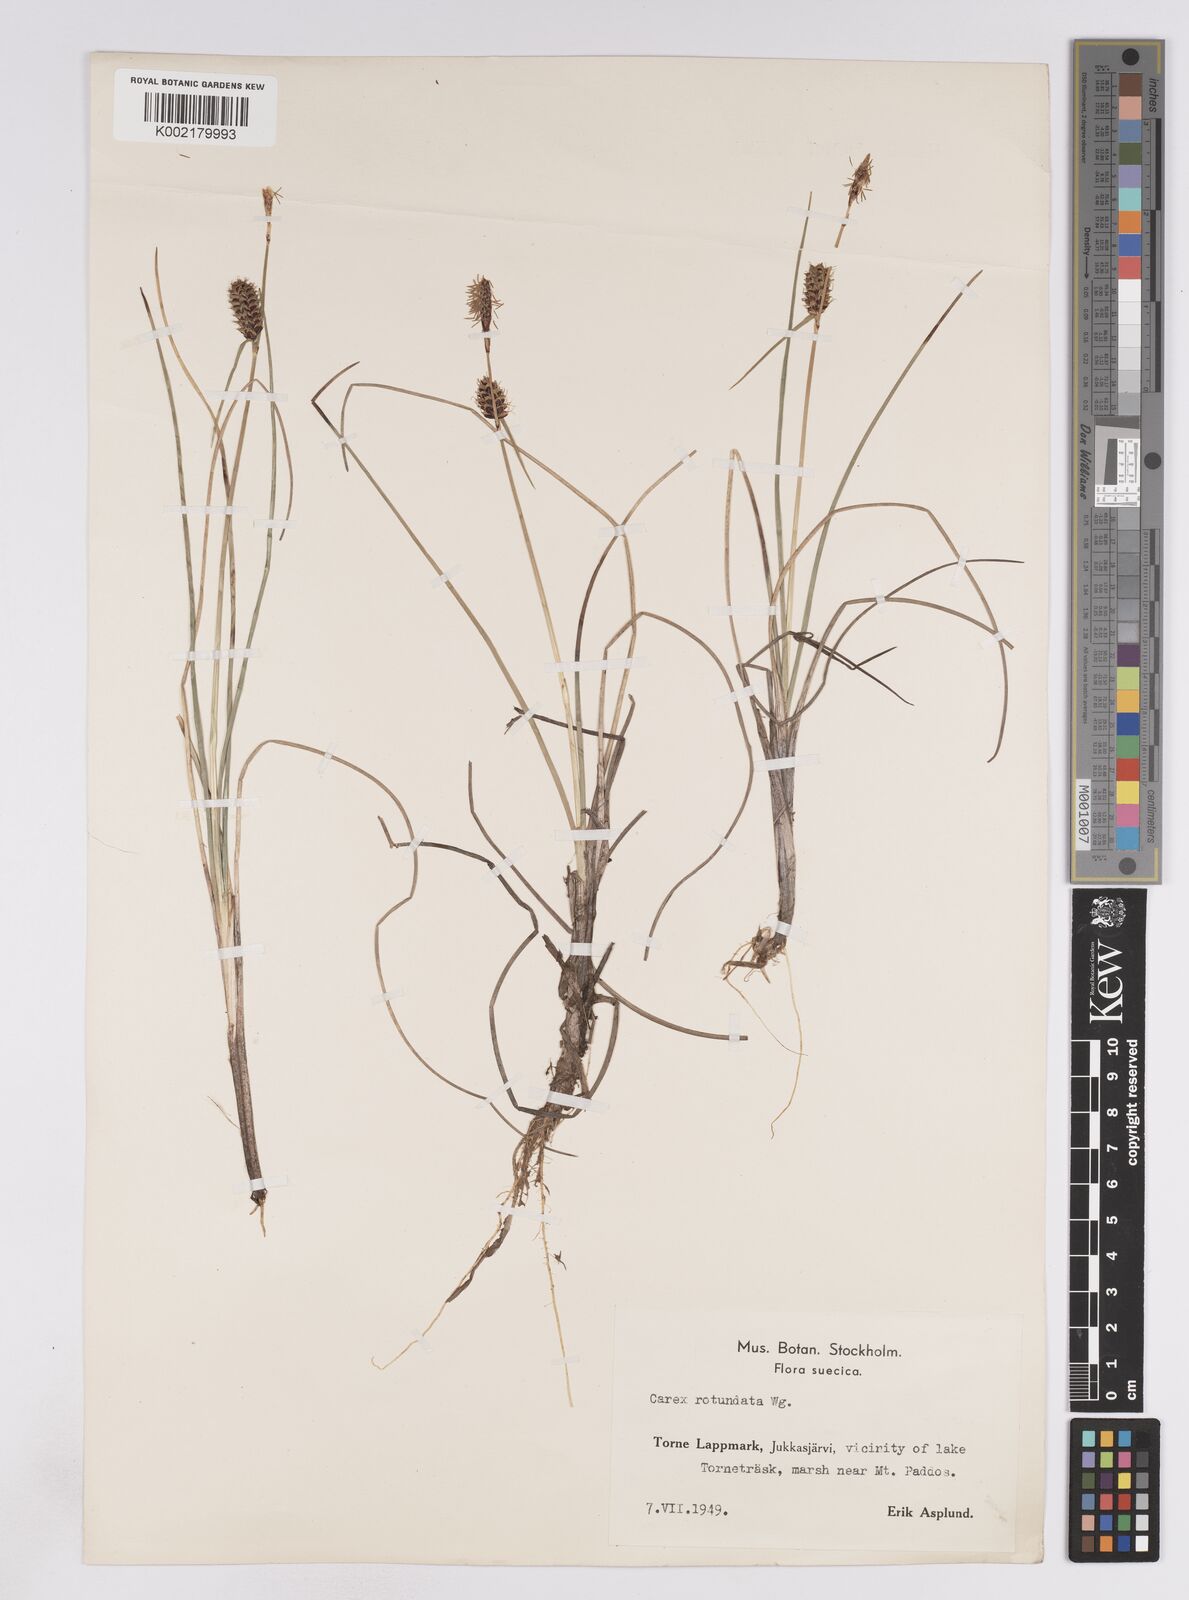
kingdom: Plantae
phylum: Tracheophyta
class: Liliopsida
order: Poales
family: Cyperaceae
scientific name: Cyperaceae
